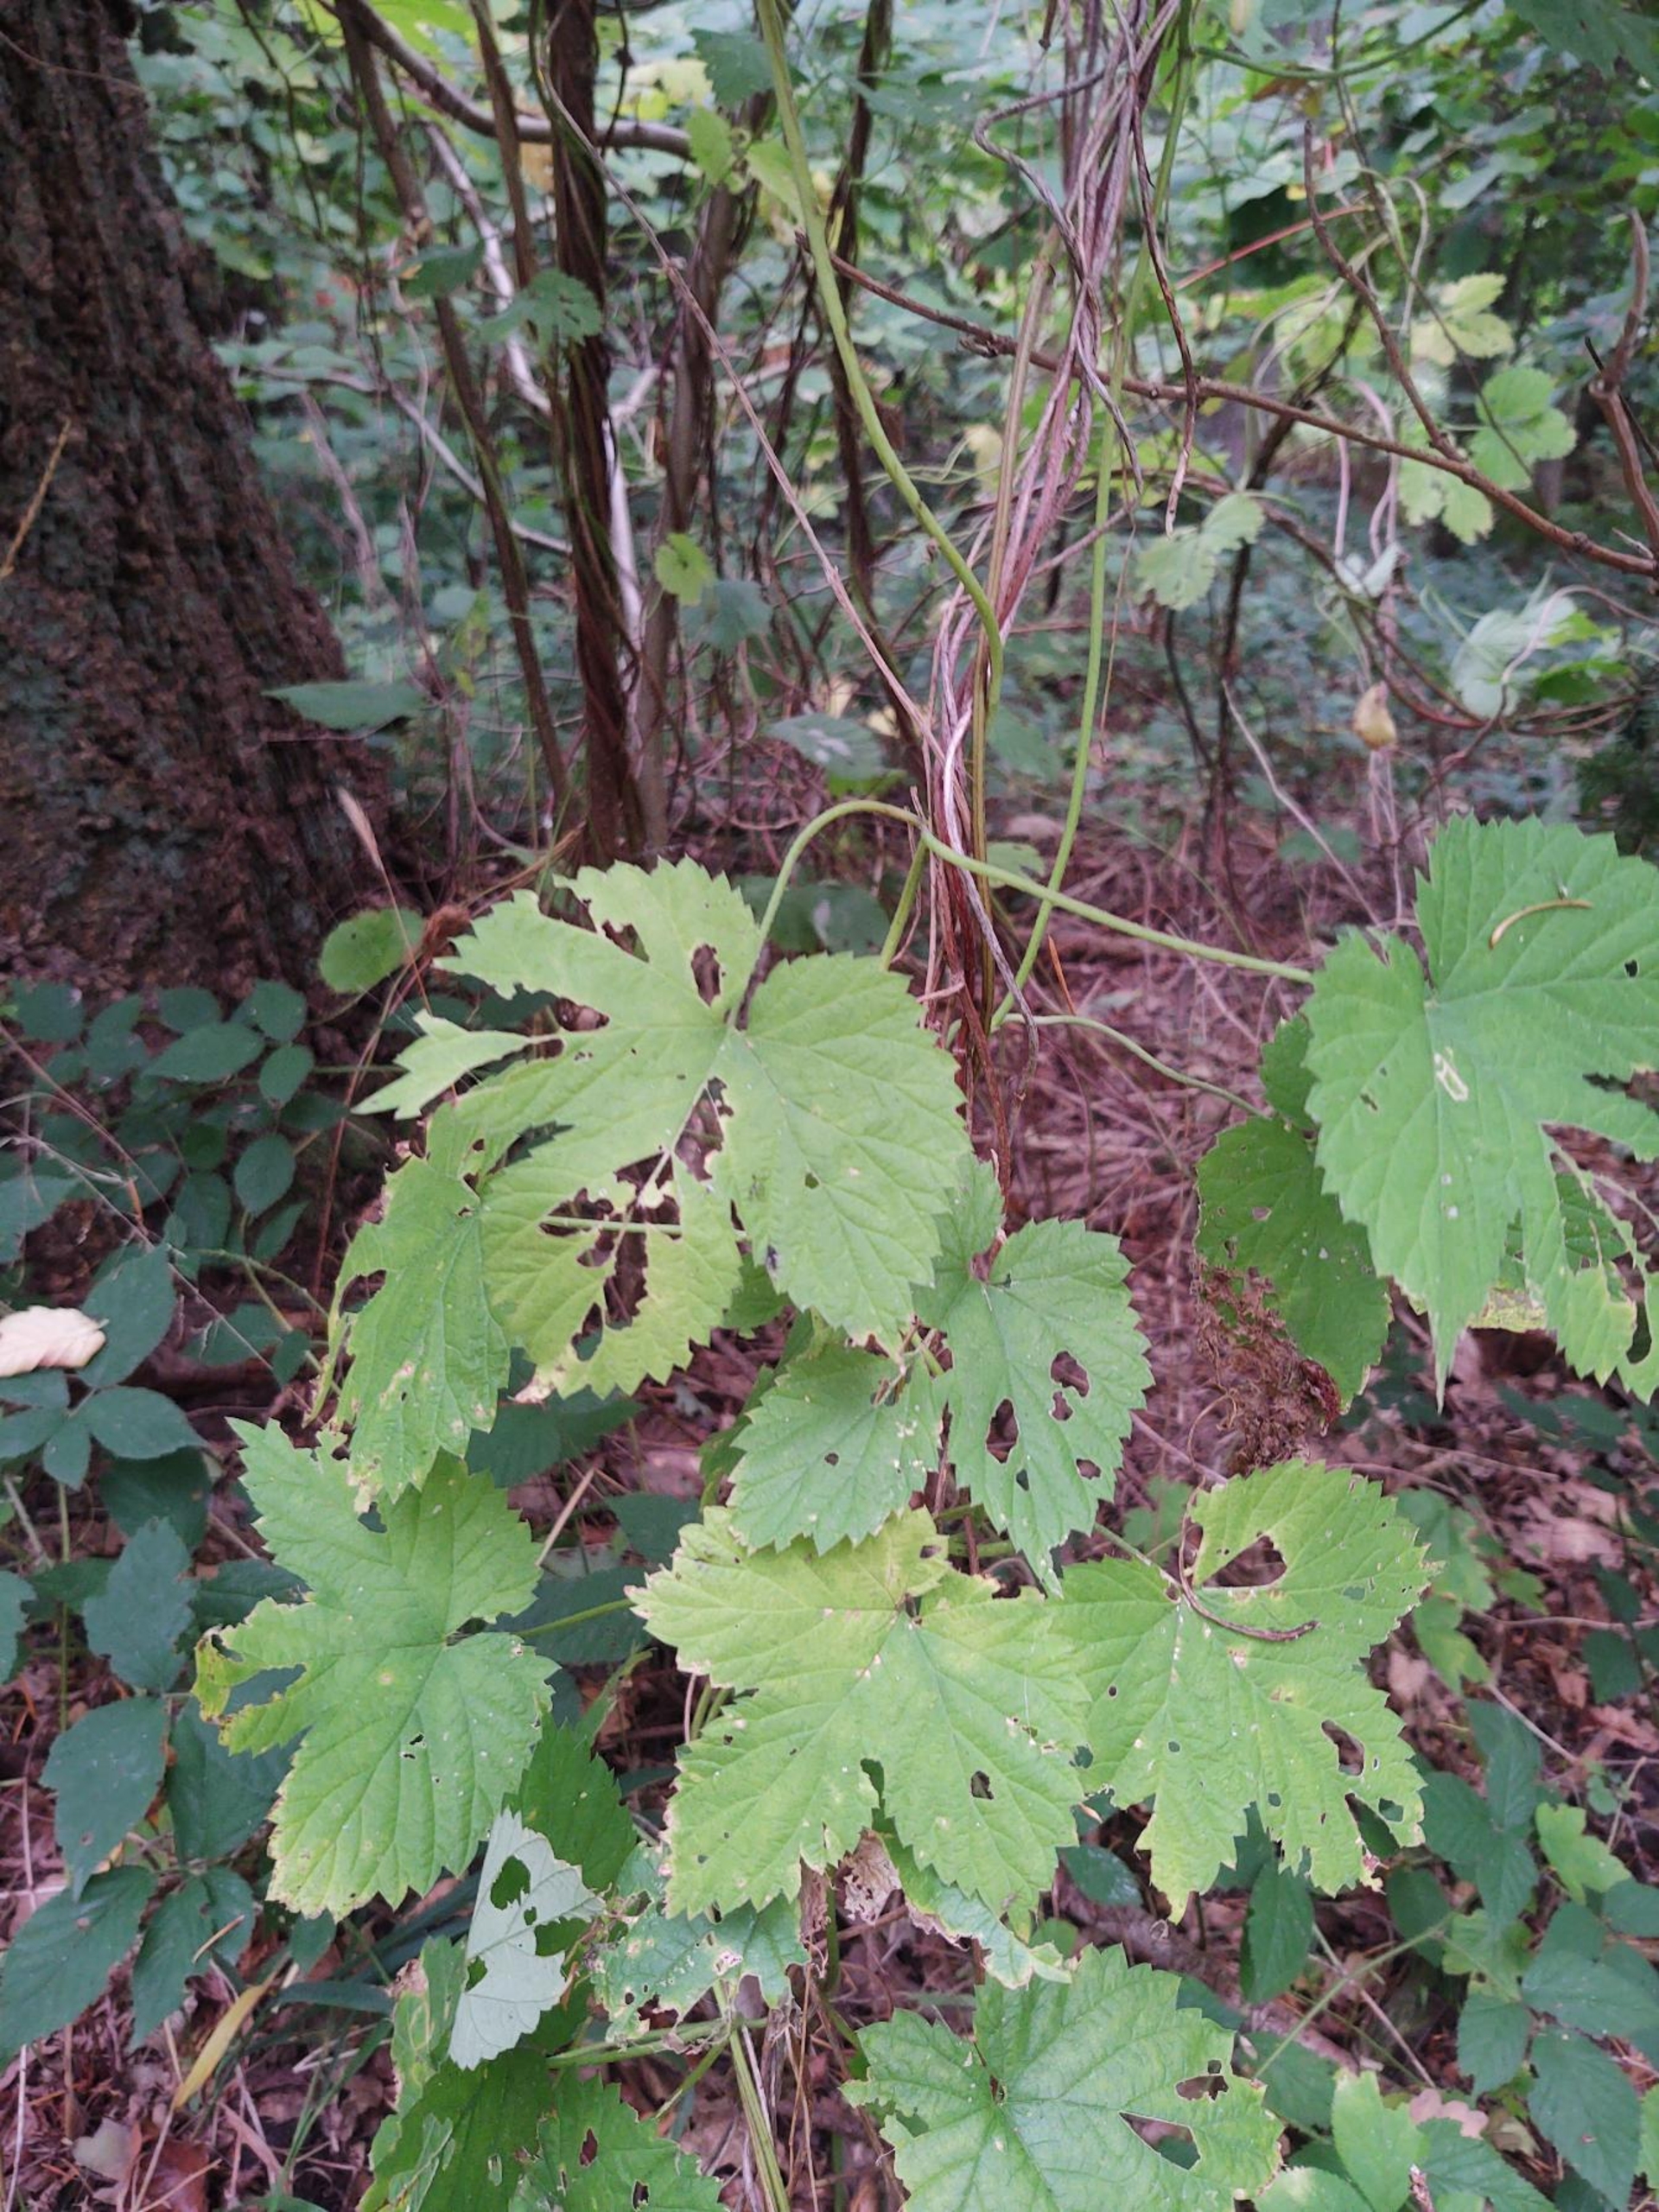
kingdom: Plantae
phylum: Tracheophyta
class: Magnoliopsida
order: Rosales
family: Cannabaceae
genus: Humulus
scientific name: Humulus lupulus
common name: Humle
